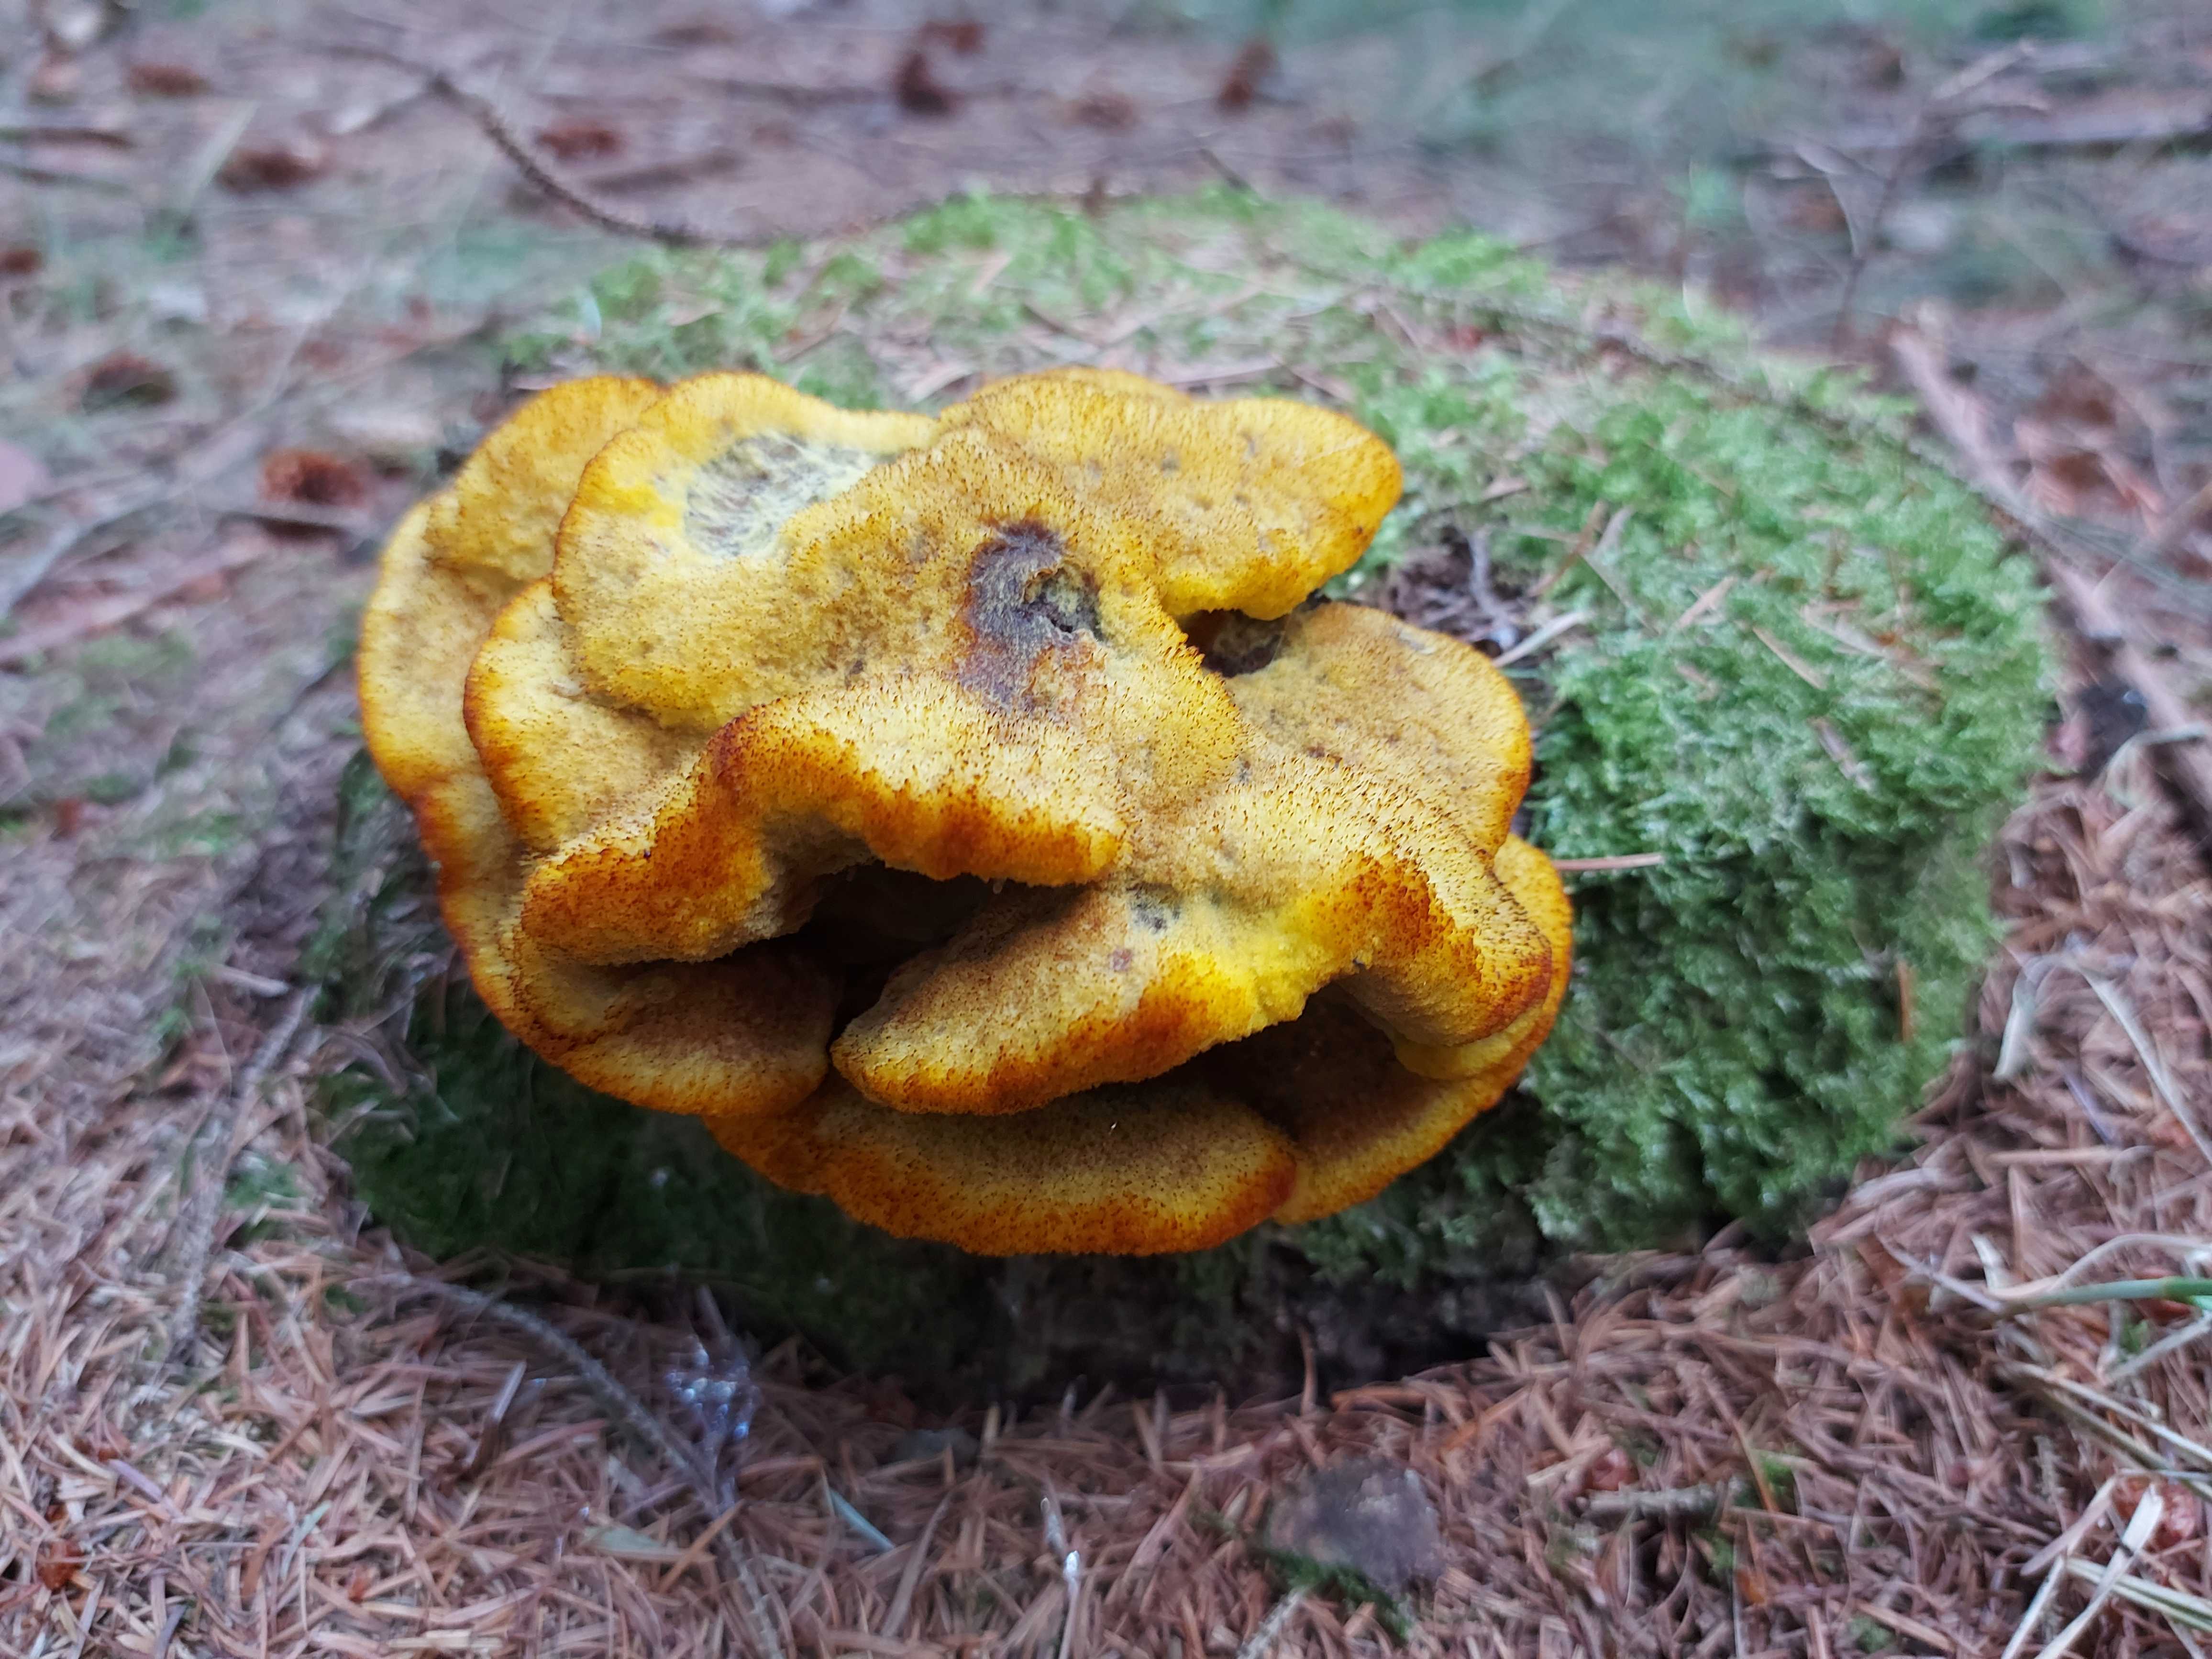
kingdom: Fungi
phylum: Basidiomycota
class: Agaricomycetes
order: Polyporales
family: Laetiporaceae
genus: Phaeolus
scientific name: Phaeolus schweinitzii
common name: brunporesvamp
